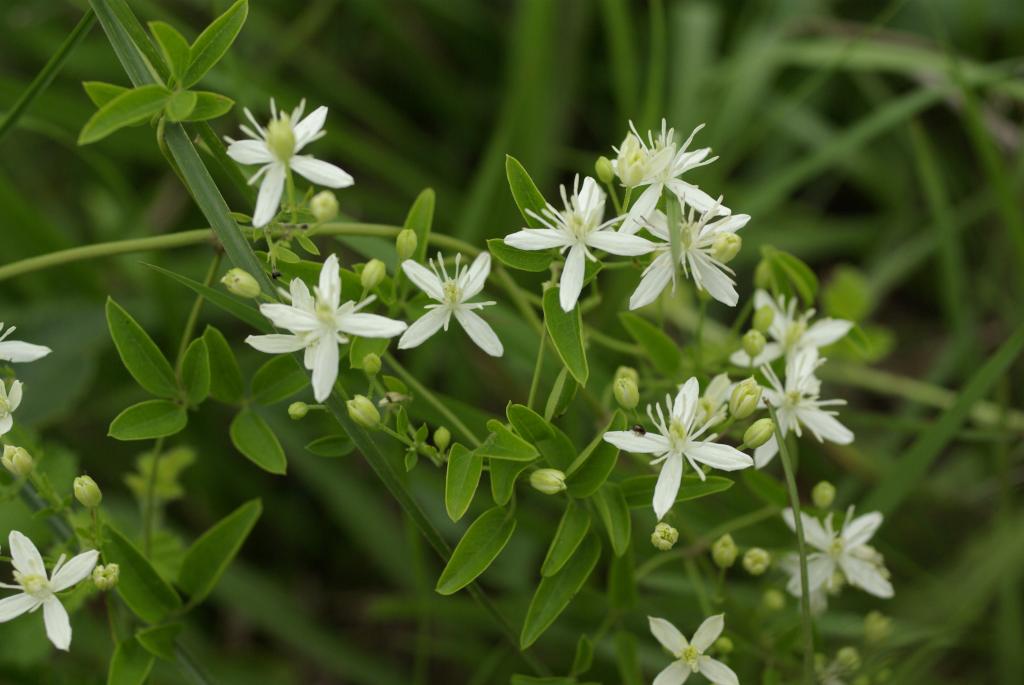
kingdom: Plantae
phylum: Tracheophyta
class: Magnoliopsida
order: Ranunculales
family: Ranunculaceae
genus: Clematis
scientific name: Clematis chinensis
